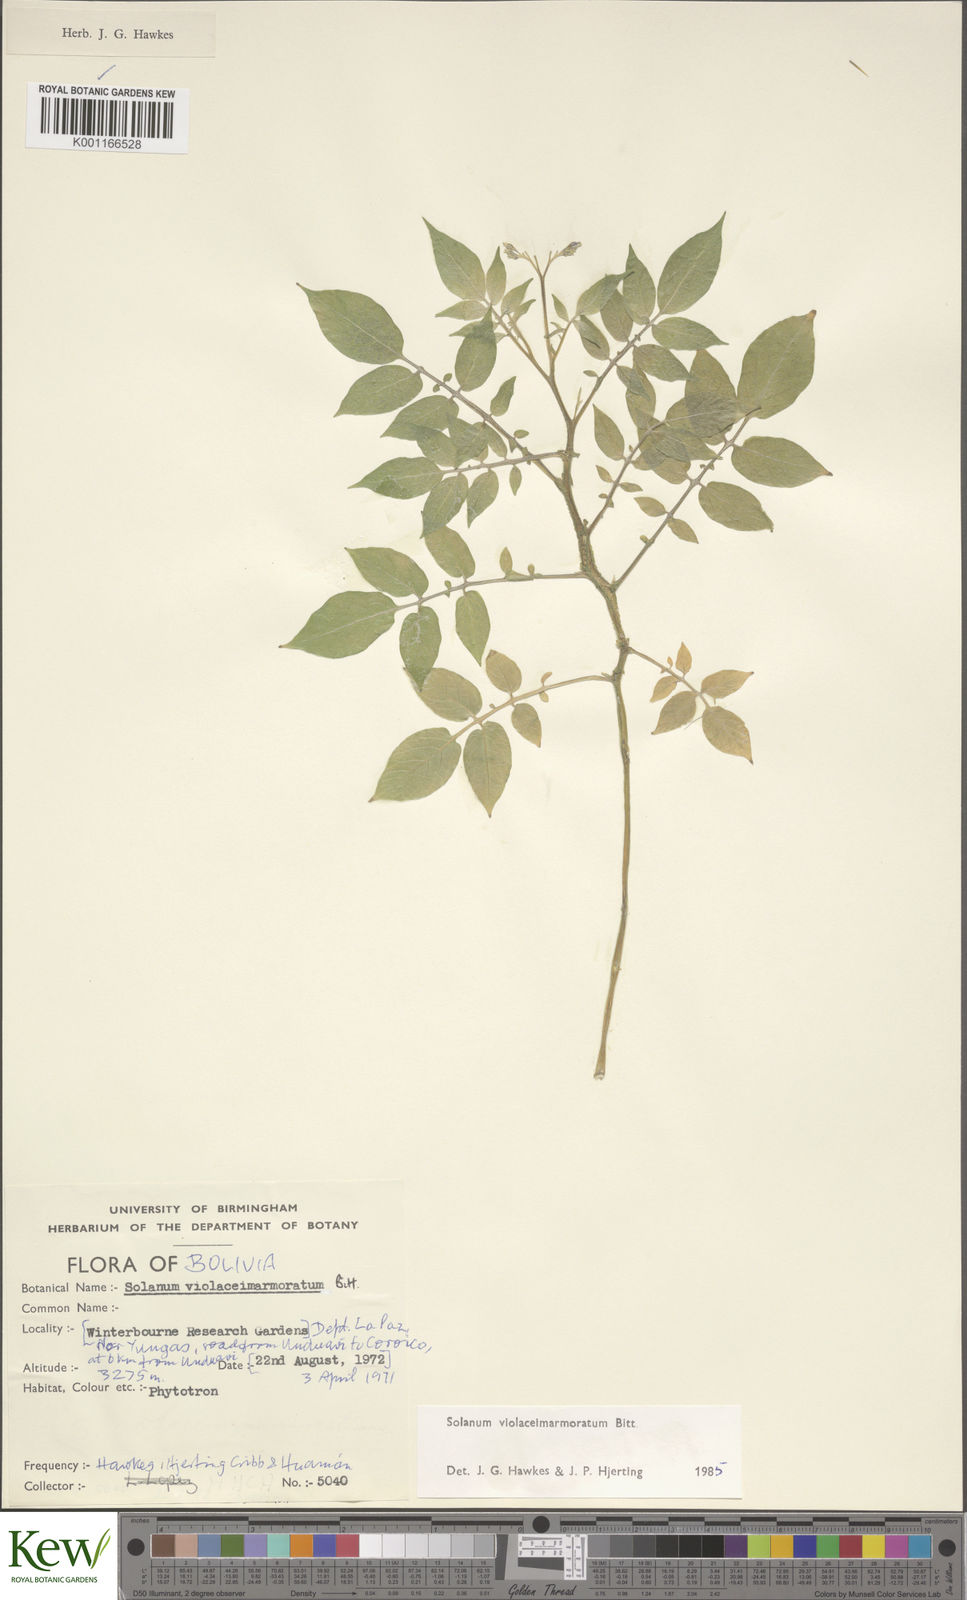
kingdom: Plantae
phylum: Tracheophyta
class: Magnoliopsida
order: Solanales
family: Solanaceae
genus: Solanum
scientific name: Solanum violaceimarmoratum
